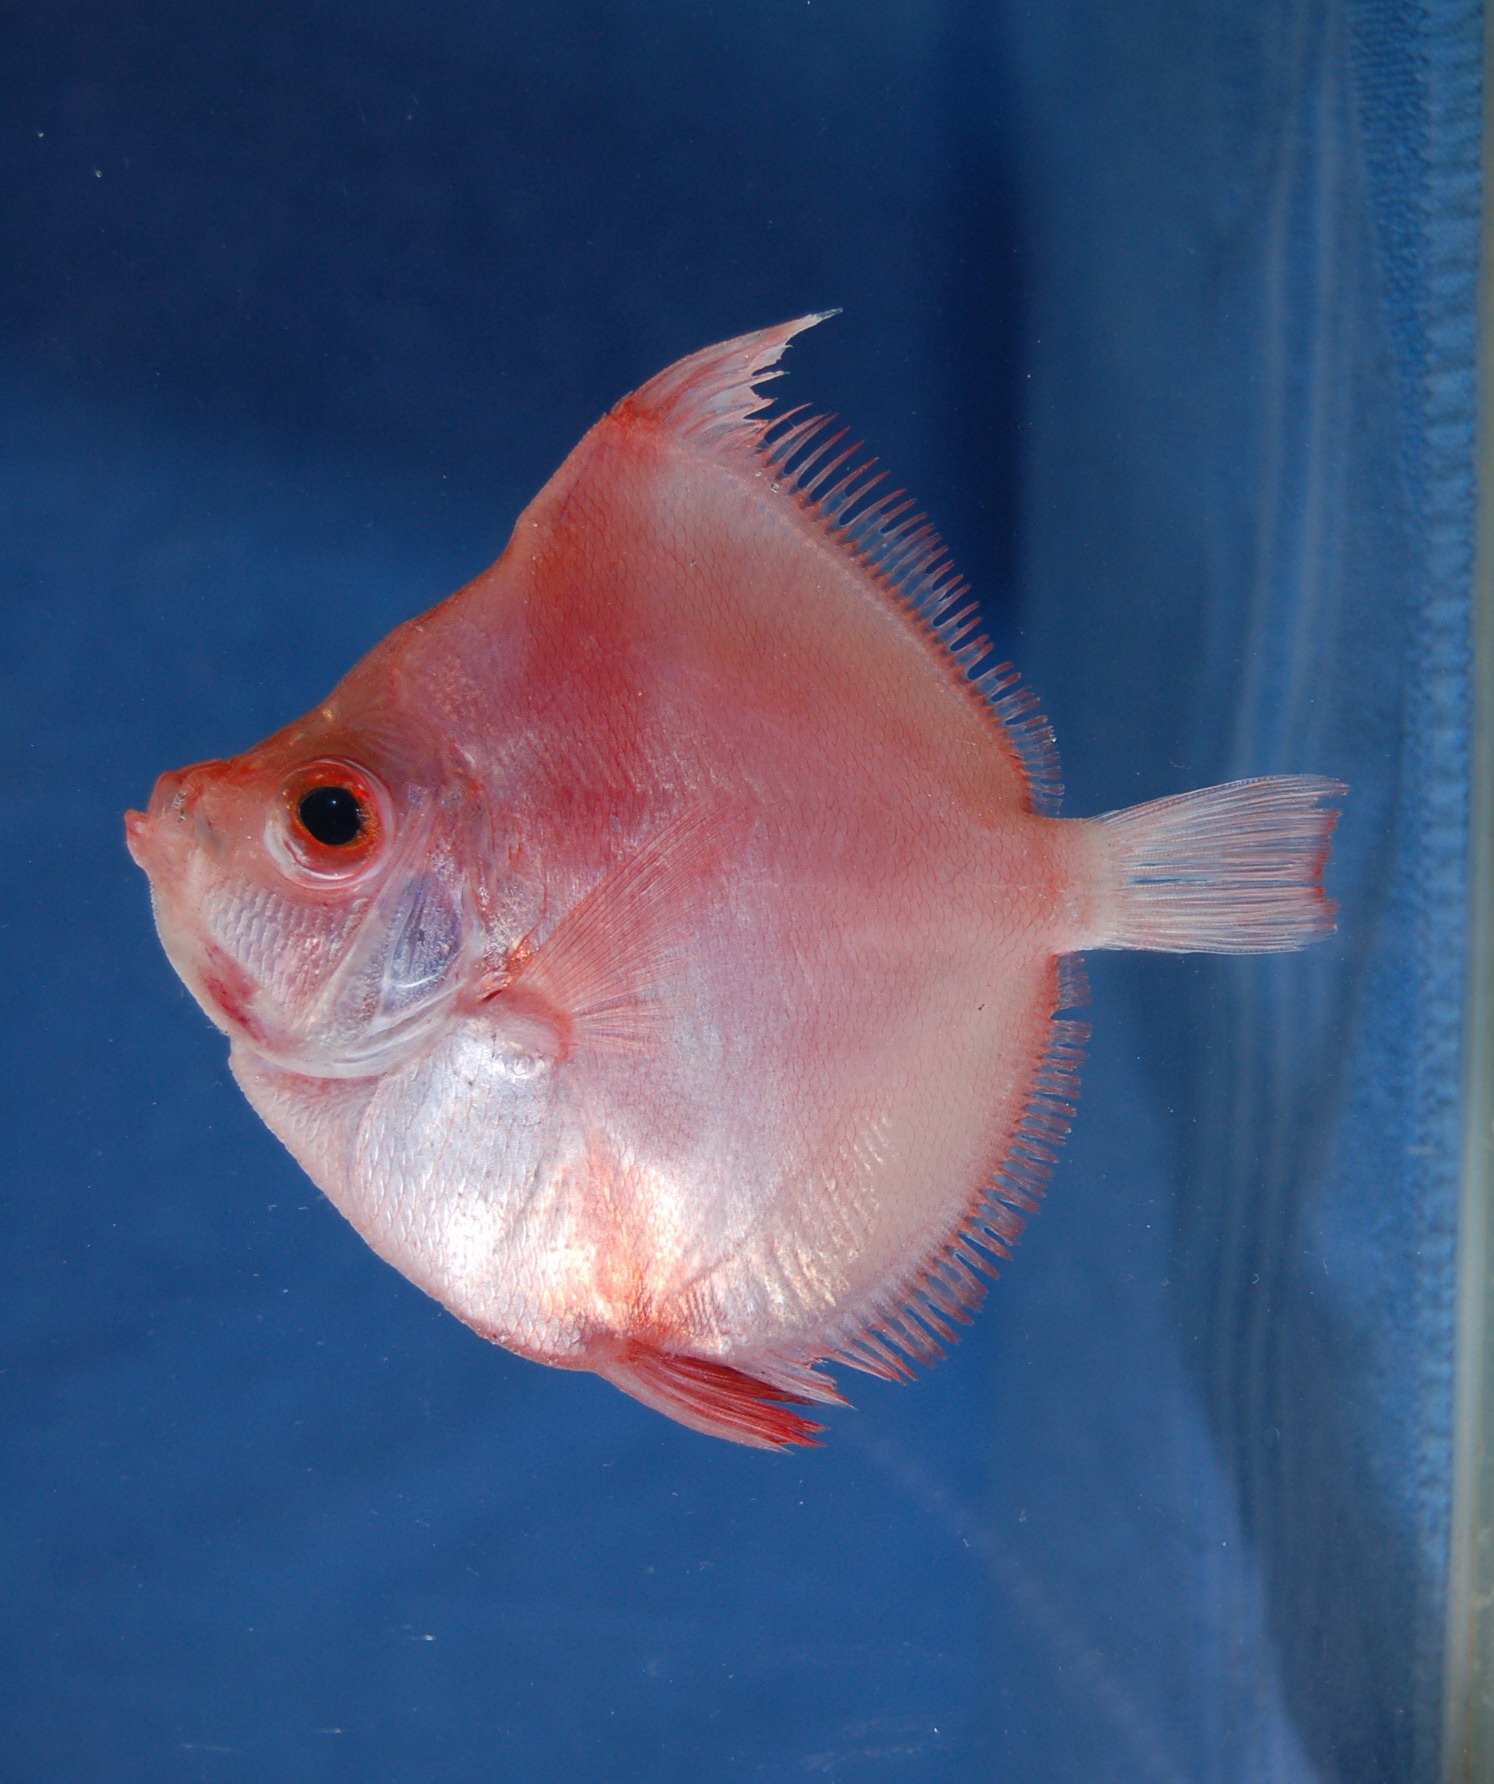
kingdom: Animalia
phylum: Chordata
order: Perciformes
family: Caproidae
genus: Antigonia
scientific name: Antigonia capros
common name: Deepbody boarfish
